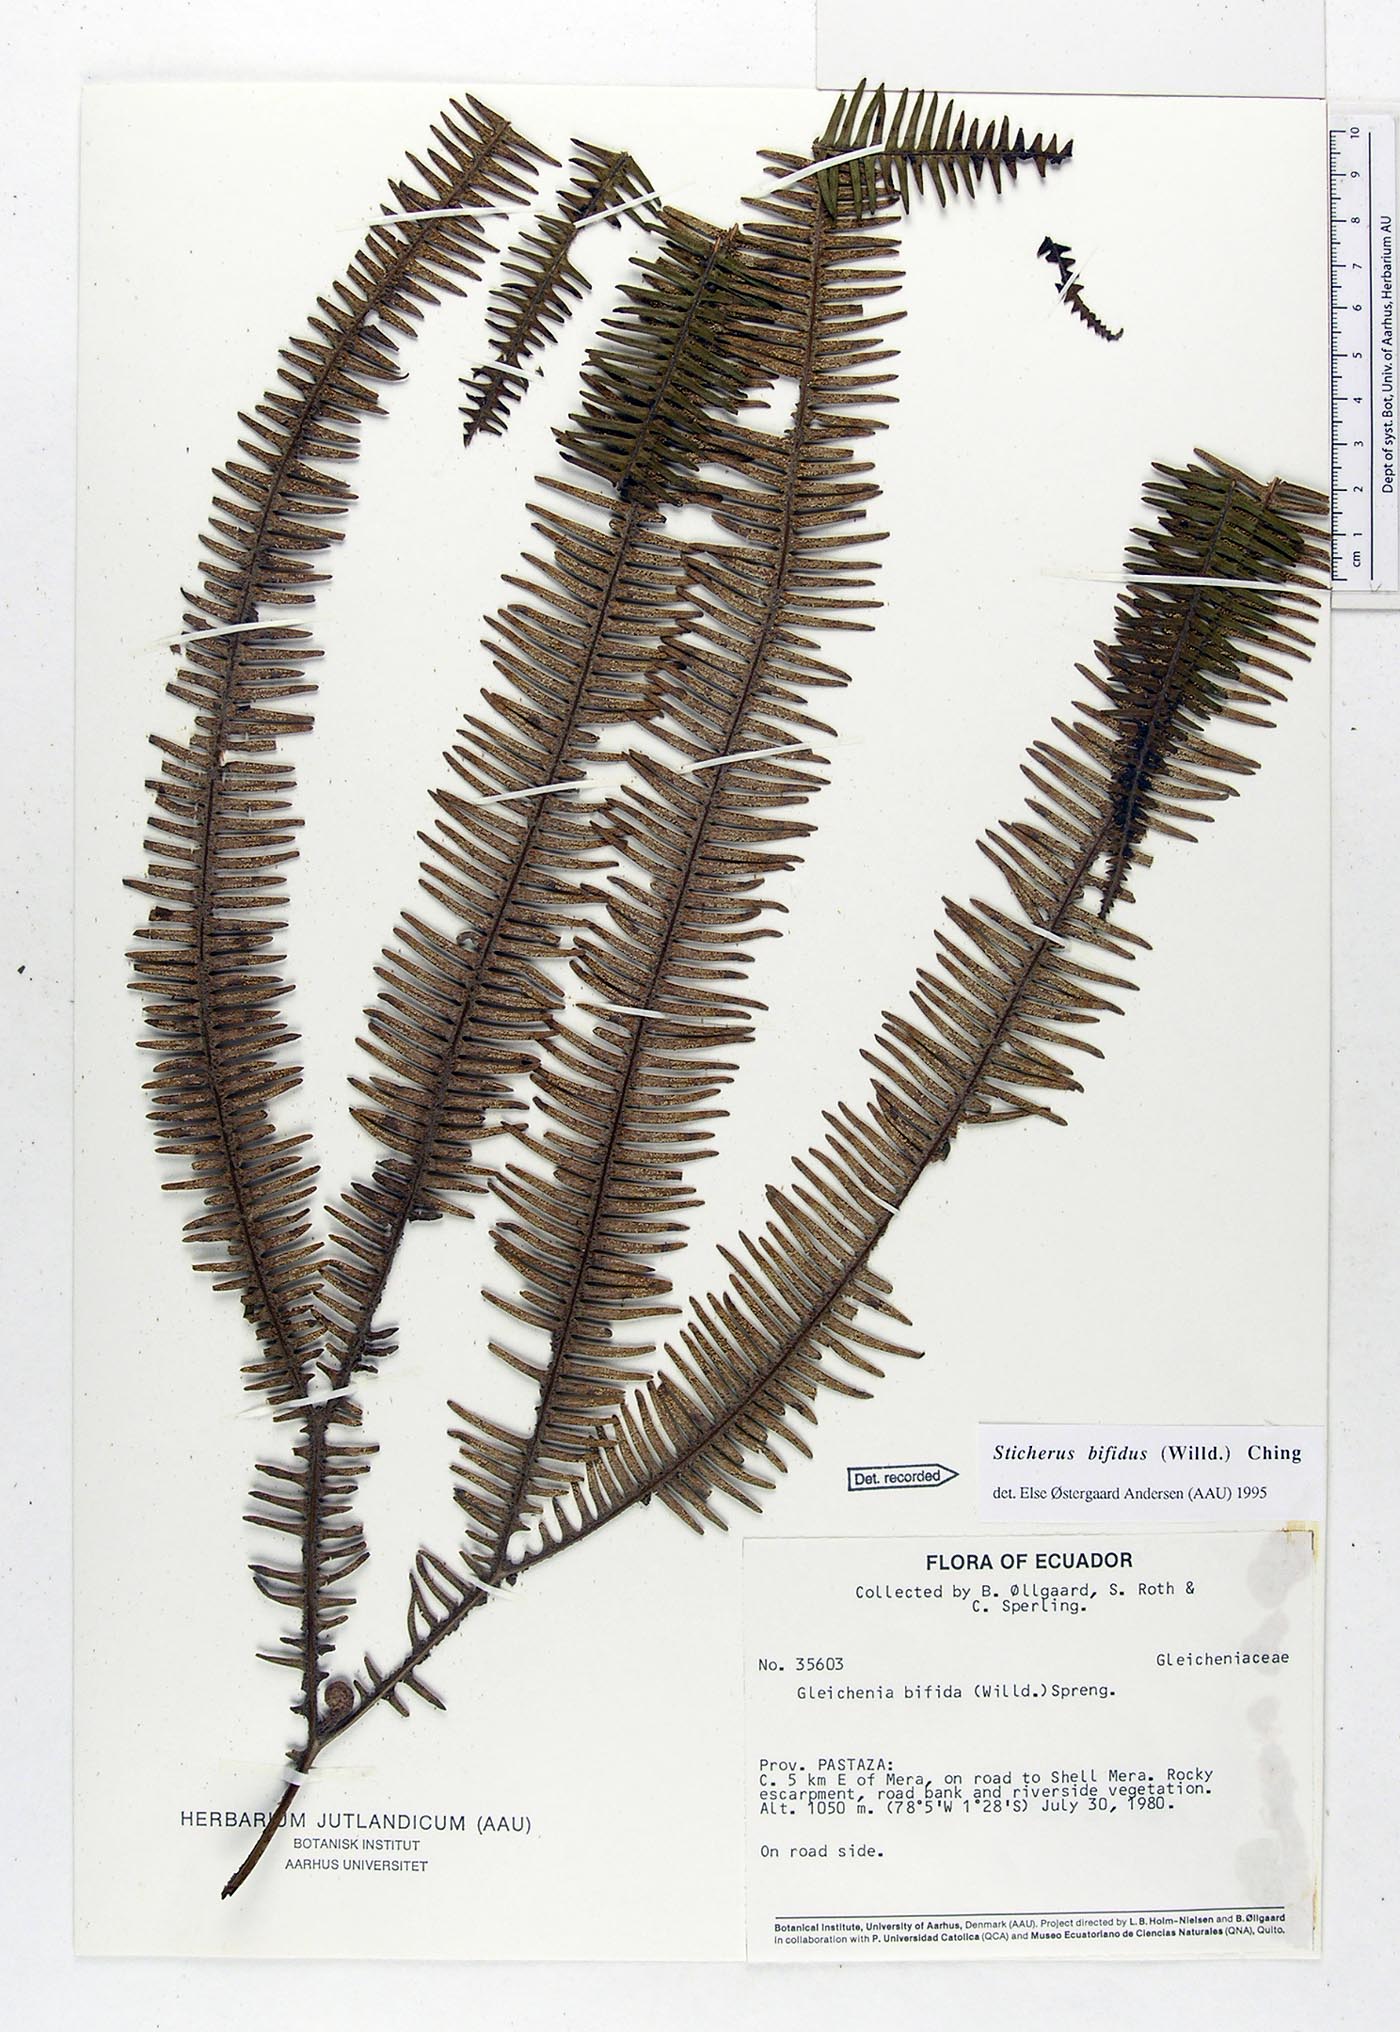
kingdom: Plantae
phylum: Tracheophyta
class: Polypodiopsida
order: Gleicheniales
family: Gleicheniaceae
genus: Sticherus
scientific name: Sticherus bifidus
